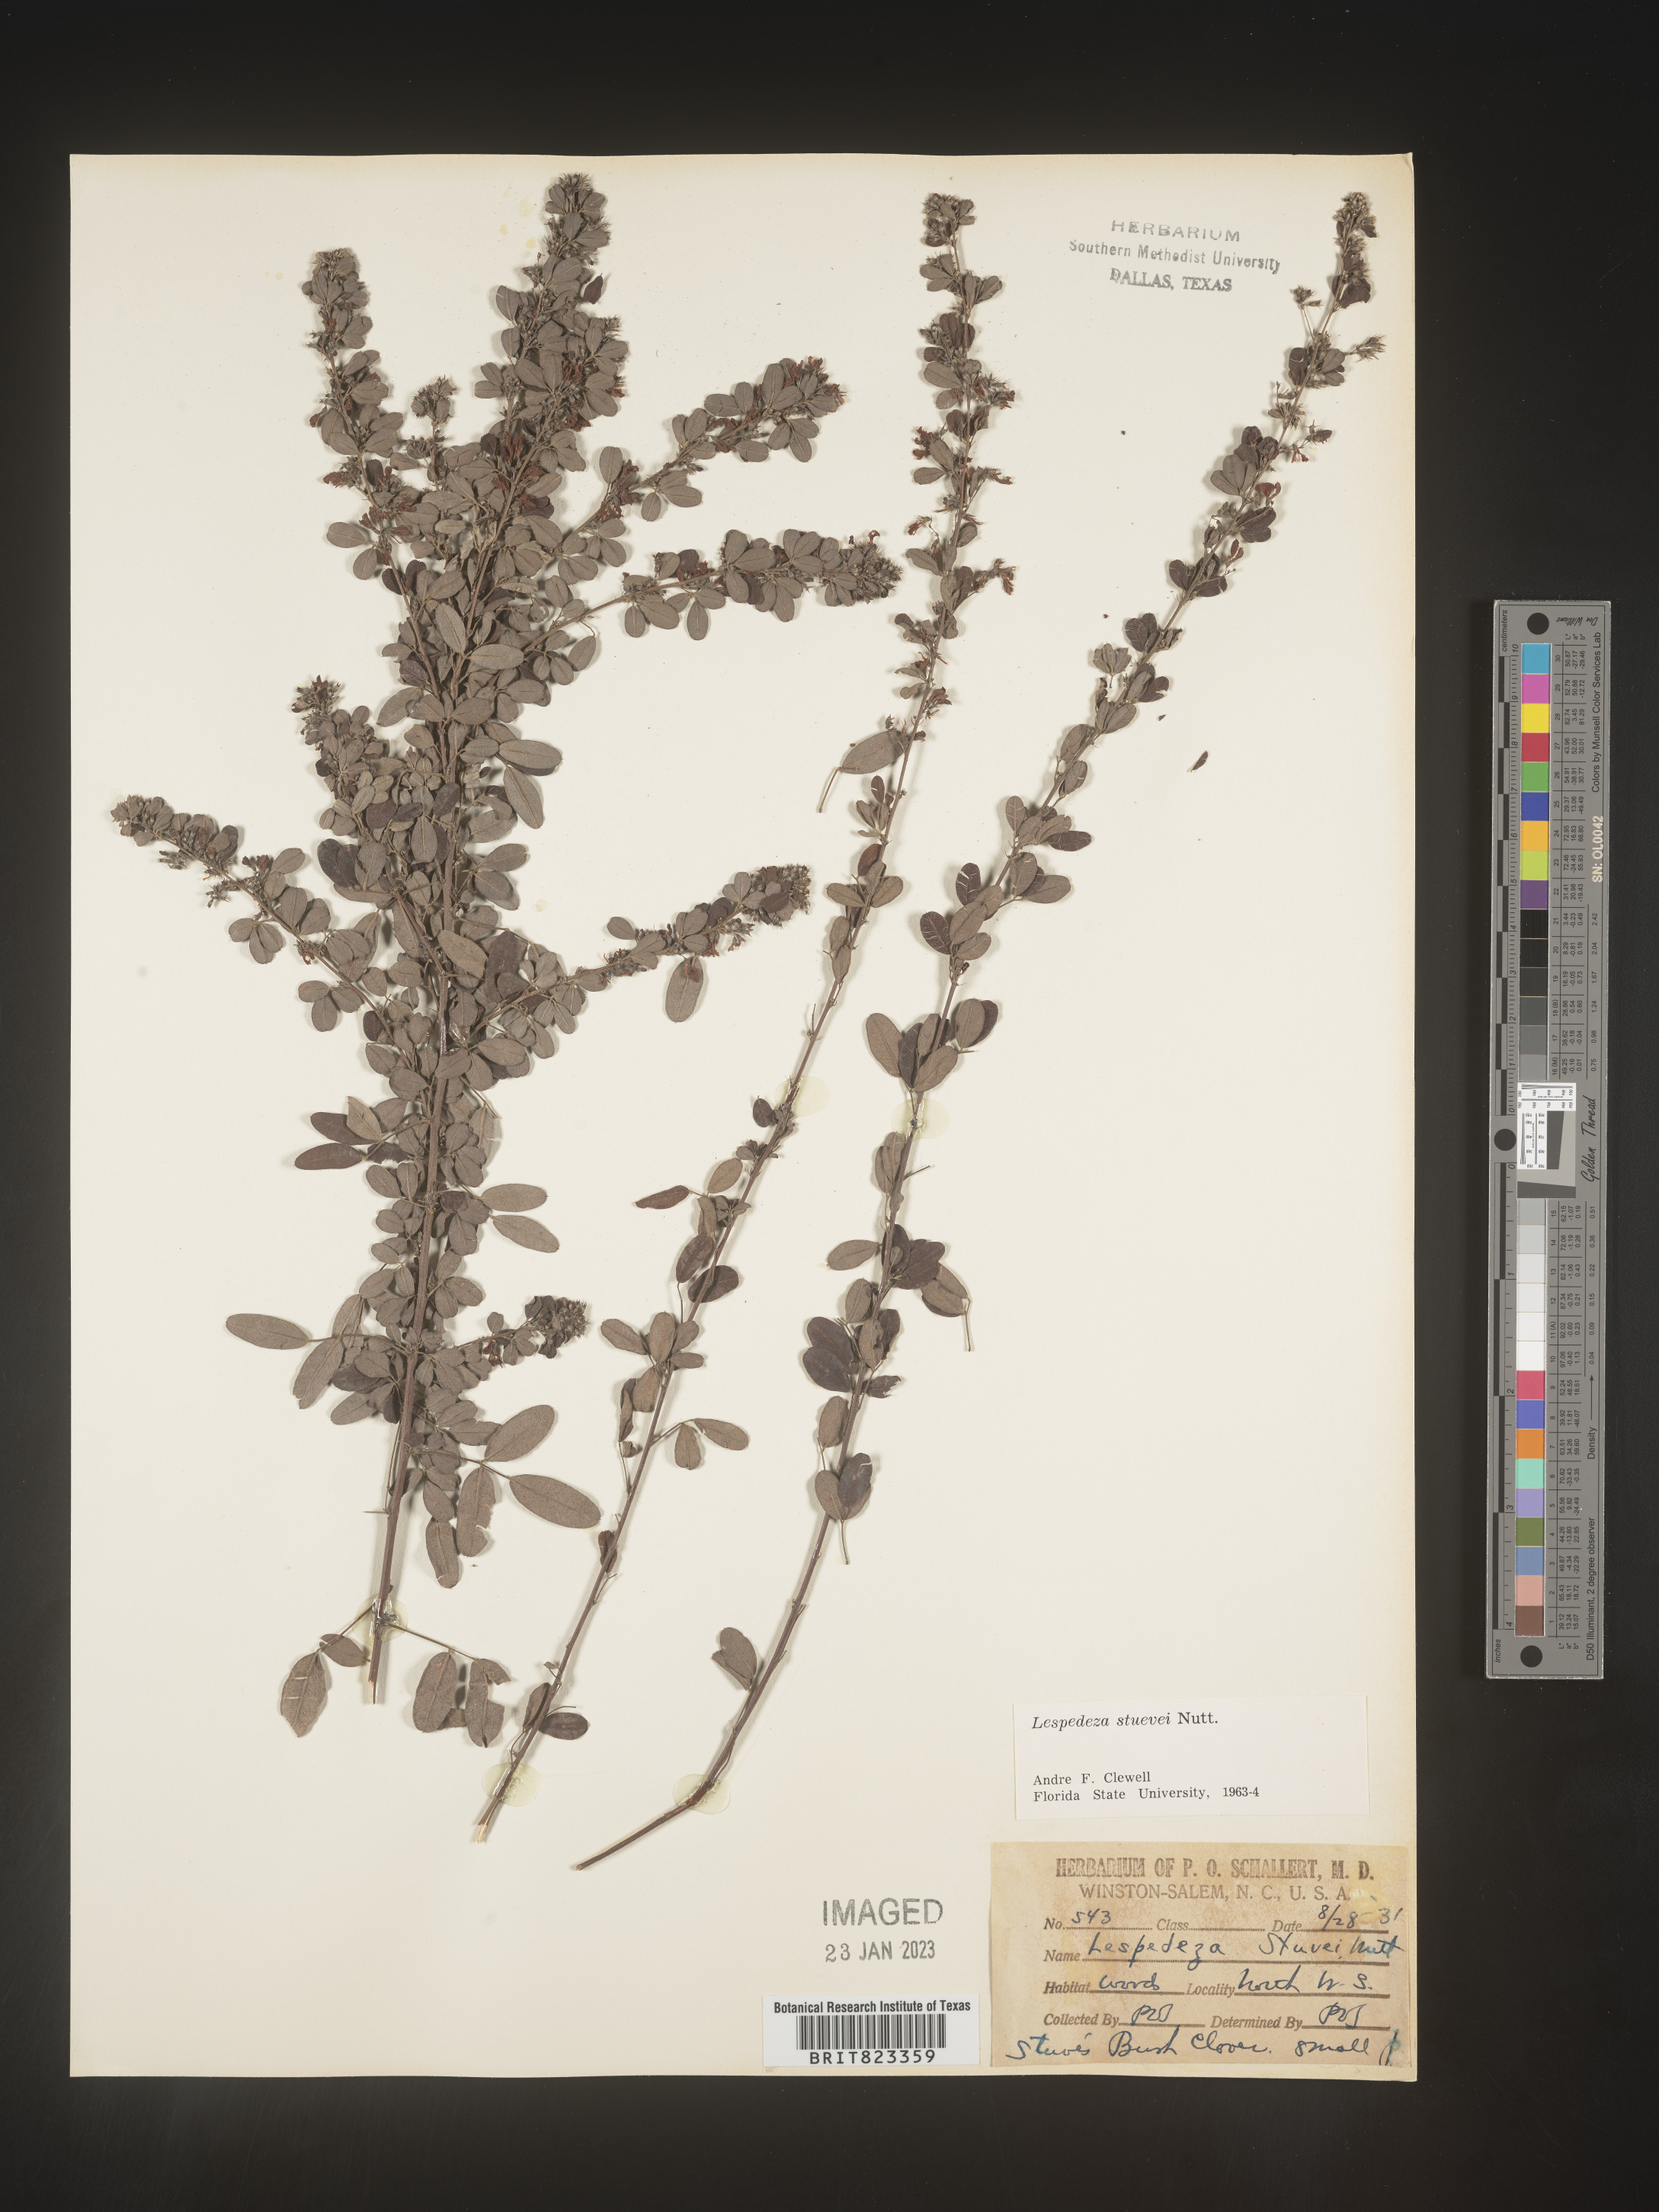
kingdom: Plantae
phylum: Tracheophyta
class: Magnoliopsida
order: Fabales
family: Fabaceae
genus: Lespedeza
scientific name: Lespedeza stuevei
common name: Tall bush-clover
